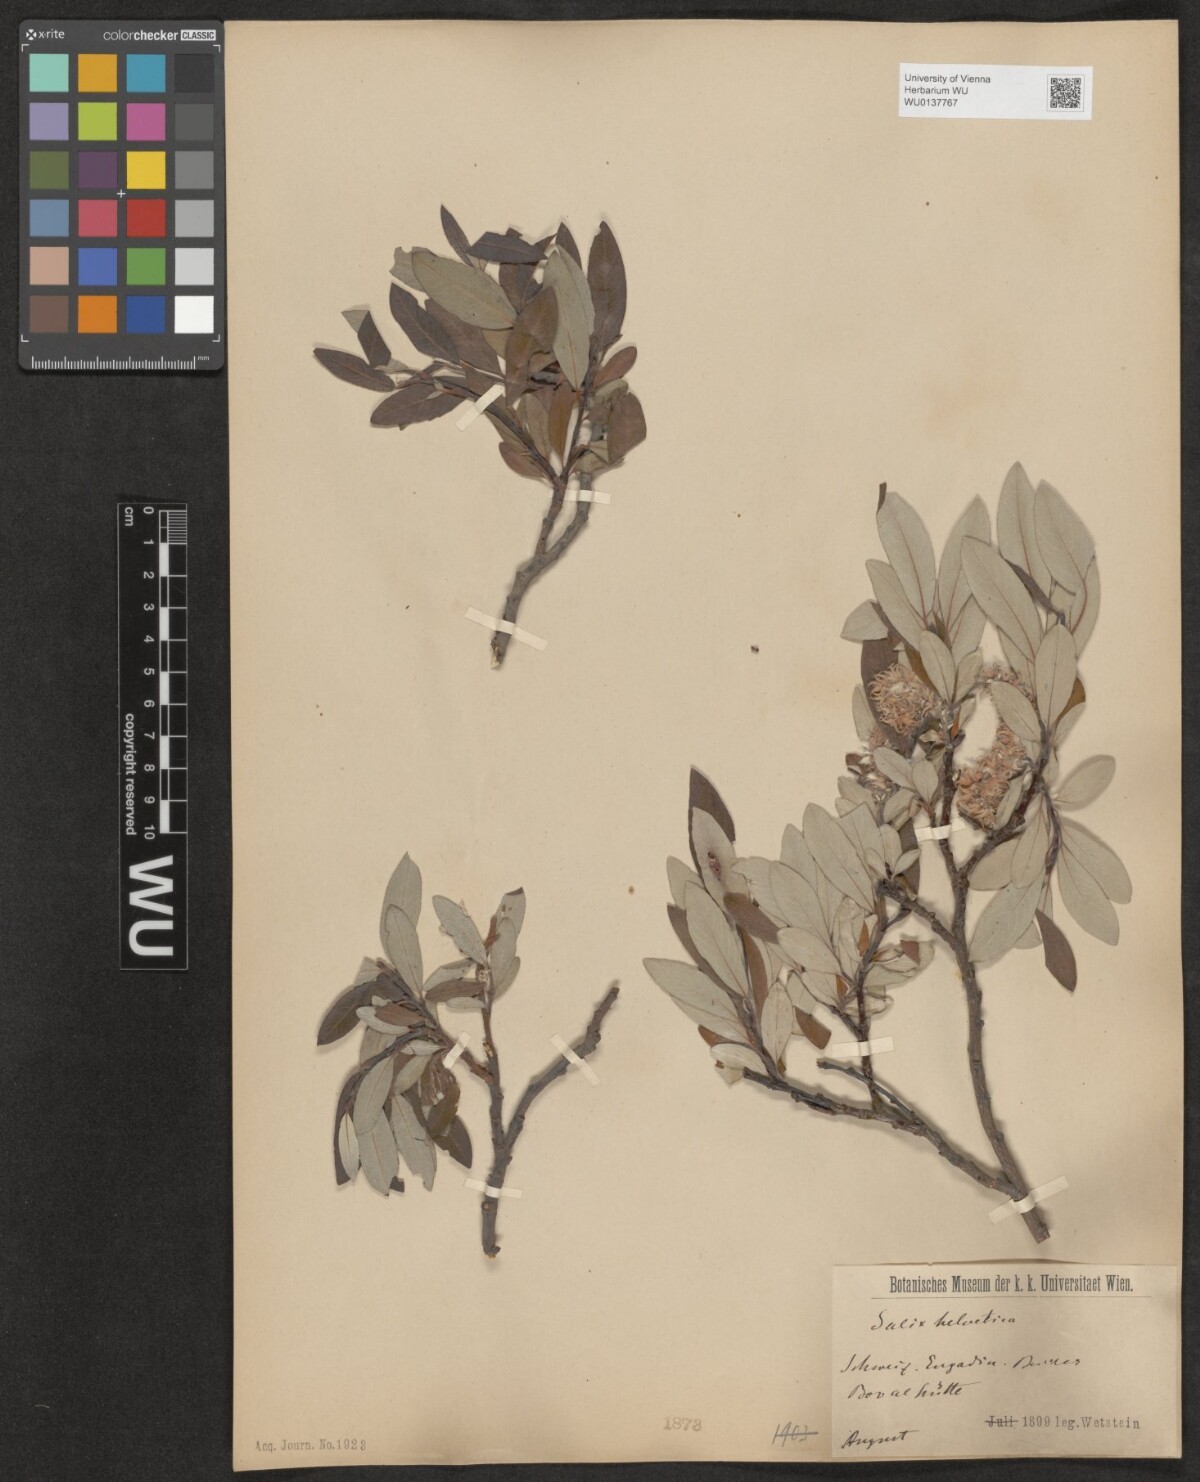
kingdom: Plantae
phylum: Tracheophyta
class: Magnoliopsida
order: Malpighiales
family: Salicaceae
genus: Salix
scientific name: Salix helvetica
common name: Swiss willow
